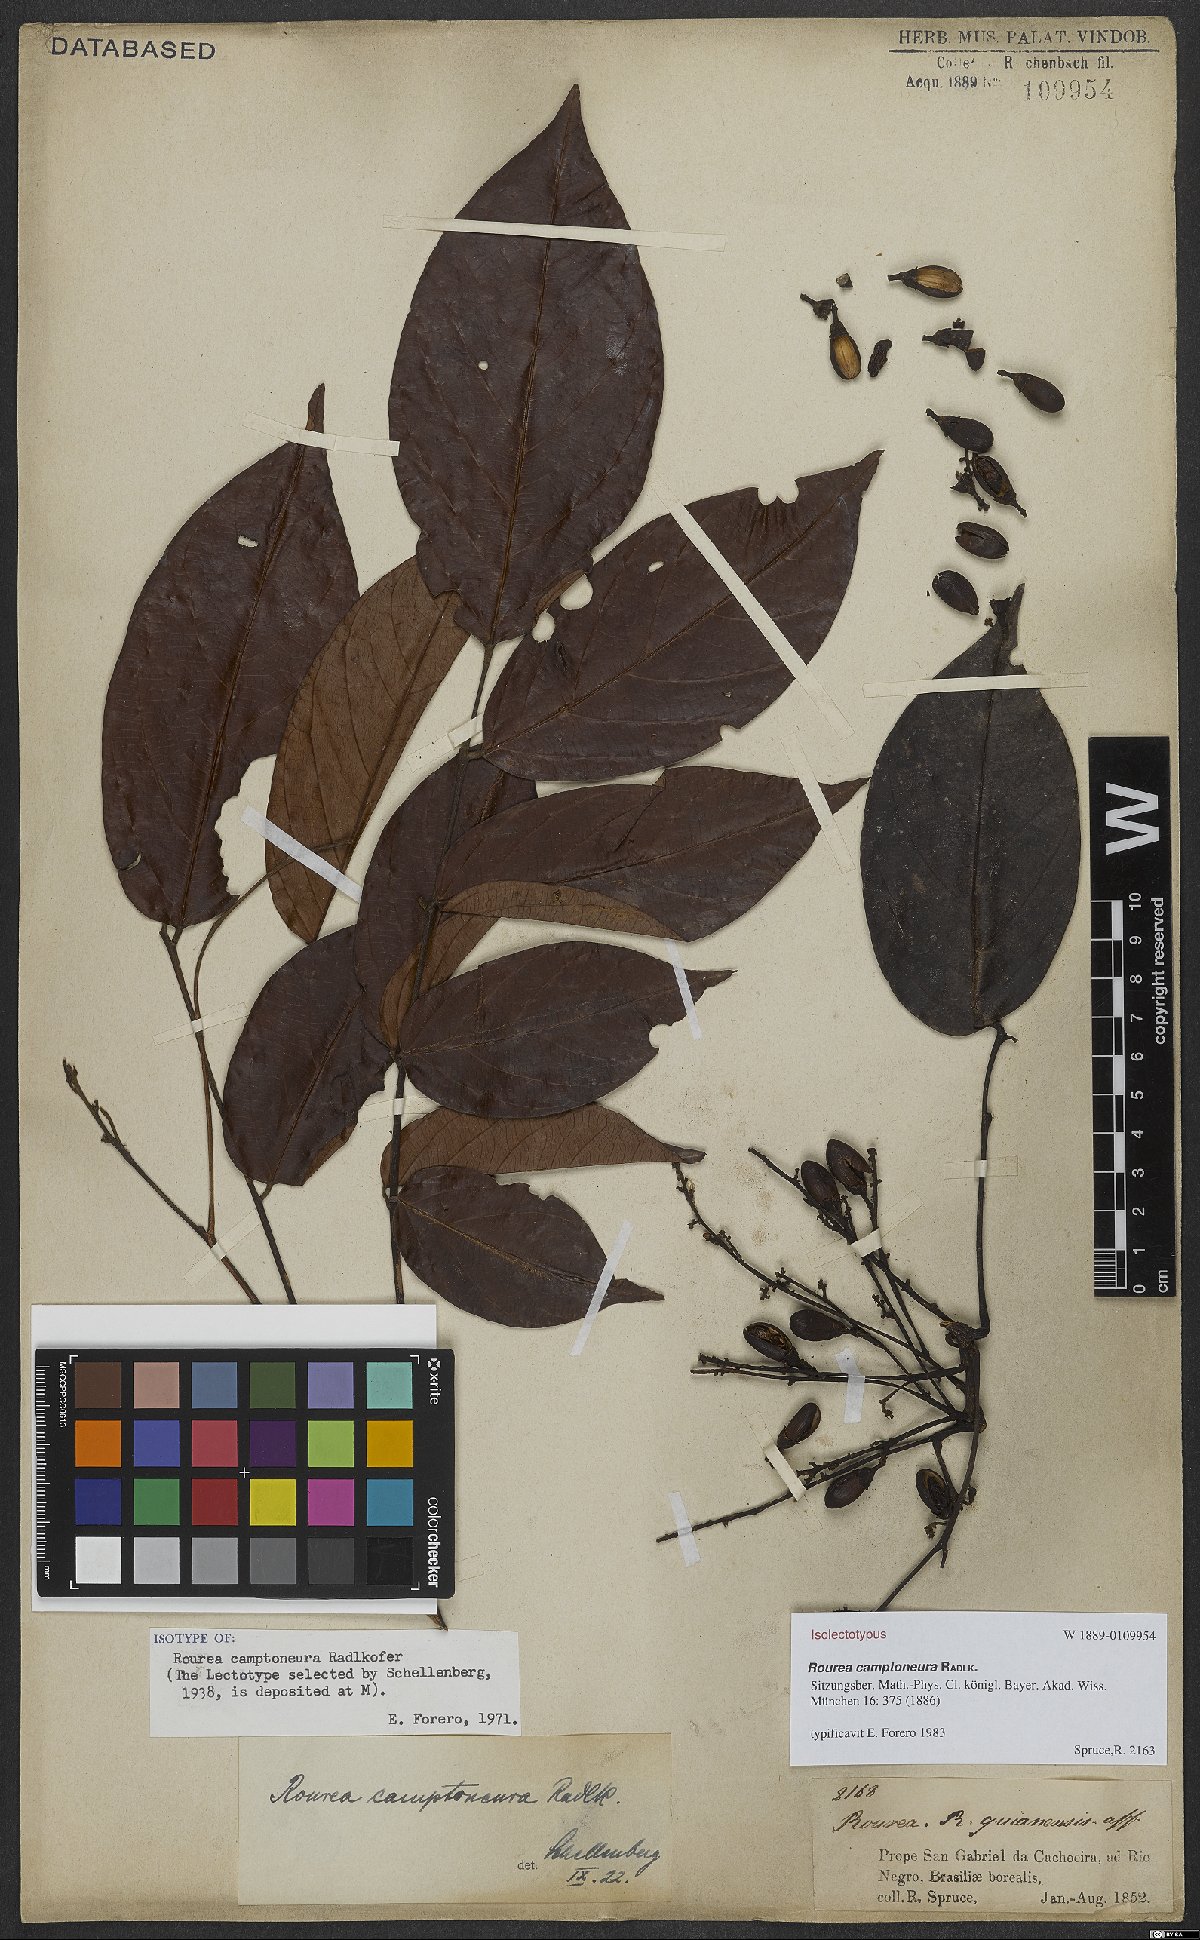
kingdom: Plantae
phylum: Tracheophyta
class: Magnoliopsida
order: Oxalidales
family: Connaraceae
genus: Rourea
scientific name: Rourea camptoneura
